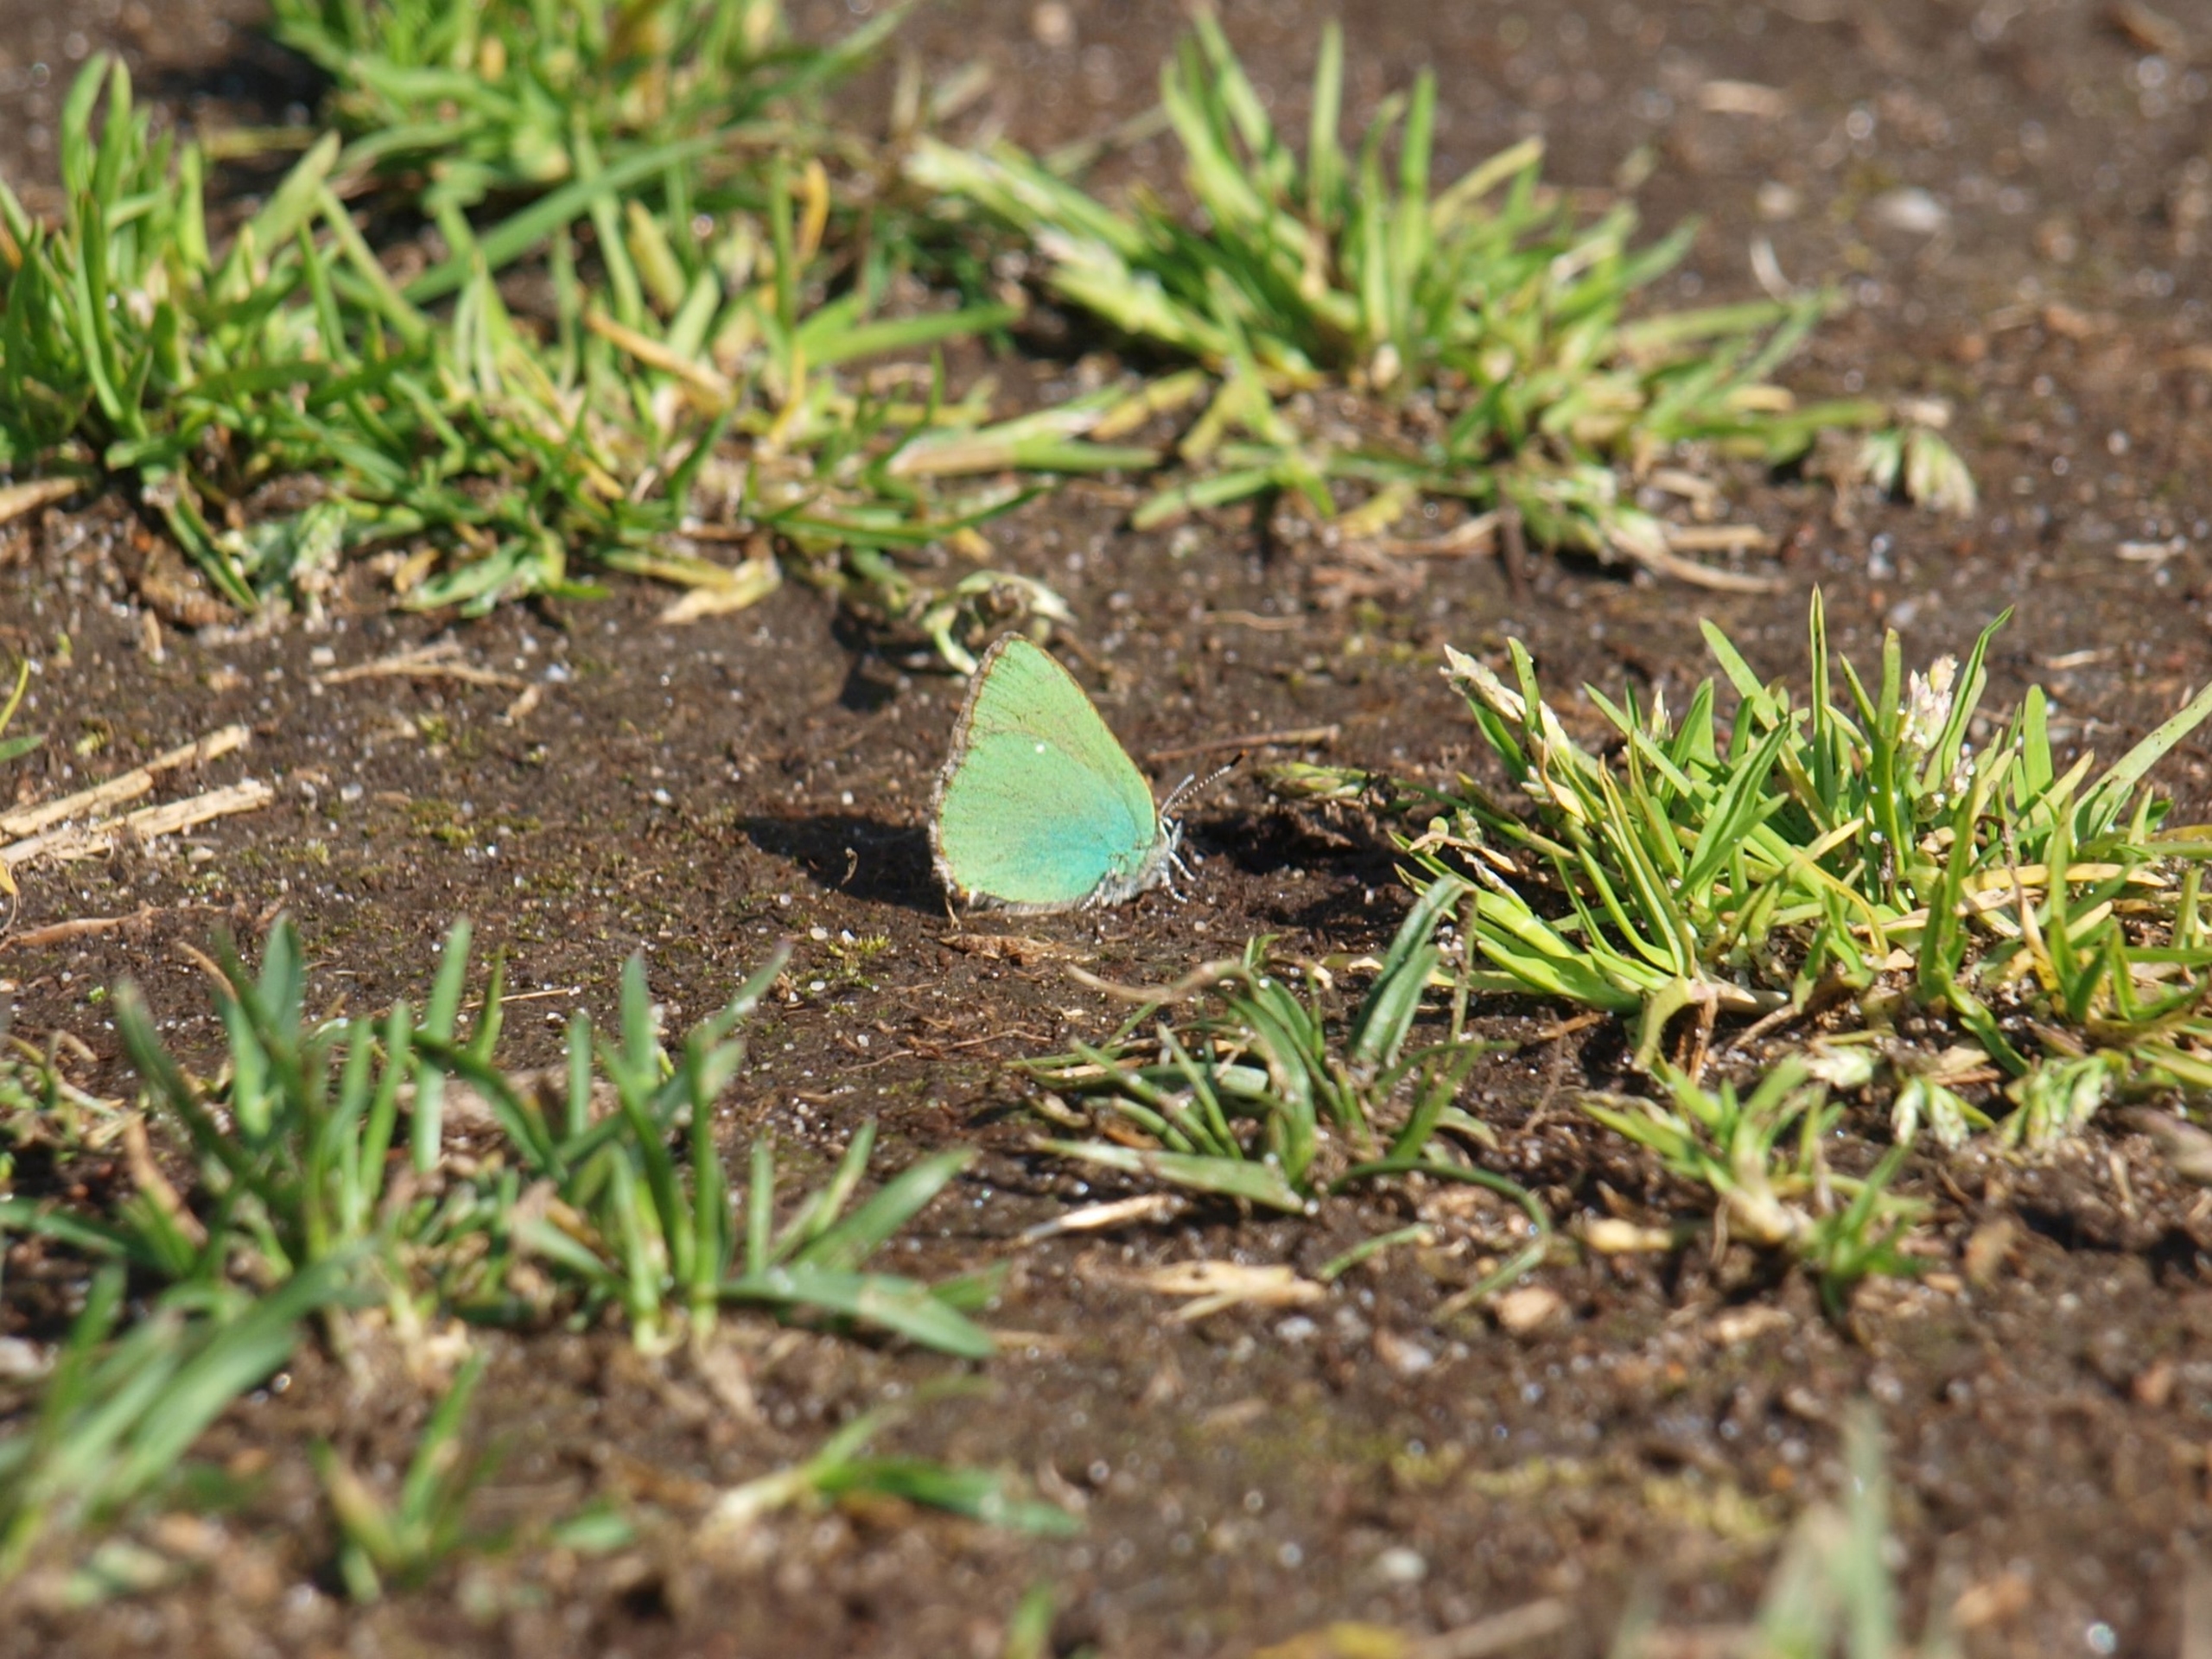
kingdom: Animalia
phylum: Arthropoda
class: Insecta
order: Lepidoptera
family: Lycaenidae
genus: Callophrys
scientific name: Callophrys rubi
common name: Grøn busksommerfugl
